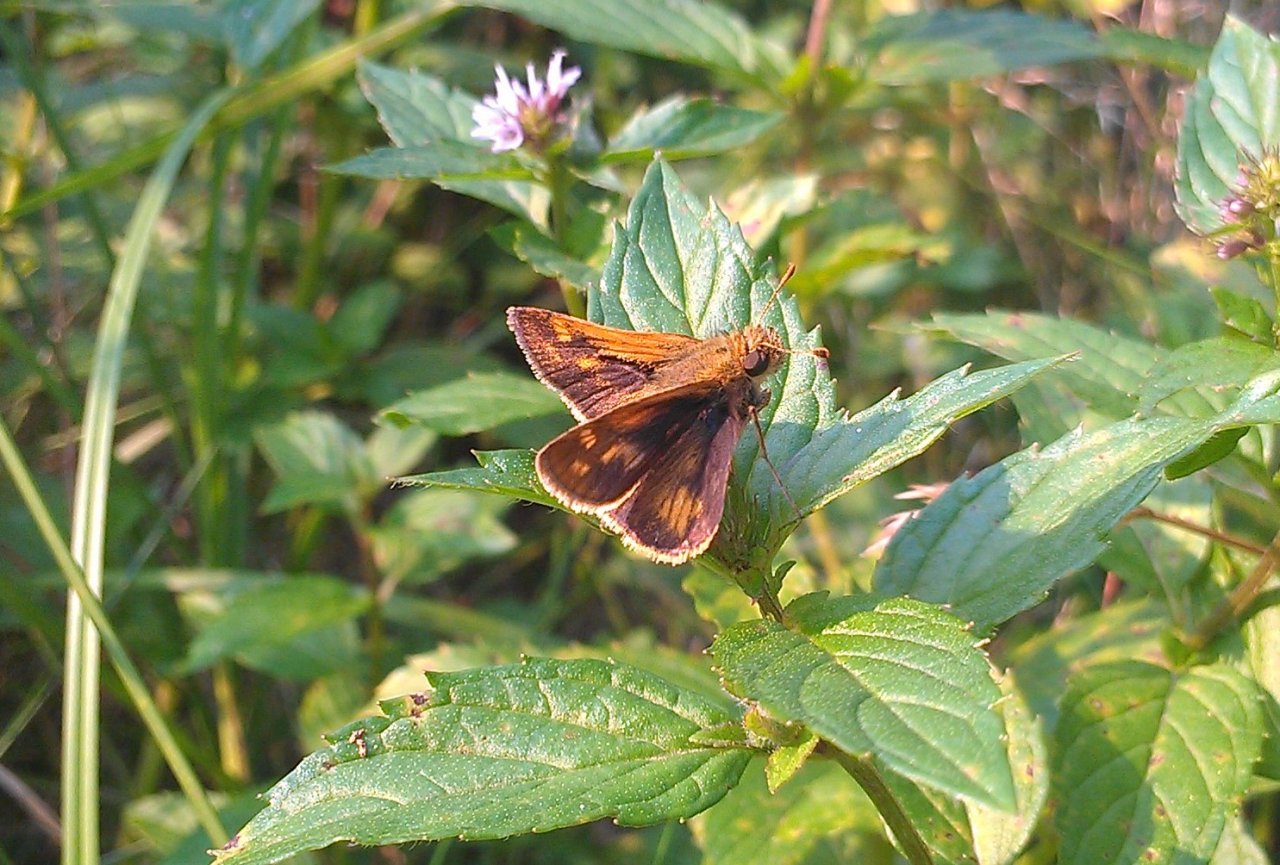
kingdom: Animalia
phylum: Arthropoda
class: Insecta
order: Lepidoptera
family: Hesperiidae
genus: Polites
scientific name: Polites coras
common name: Peck's Skipper
